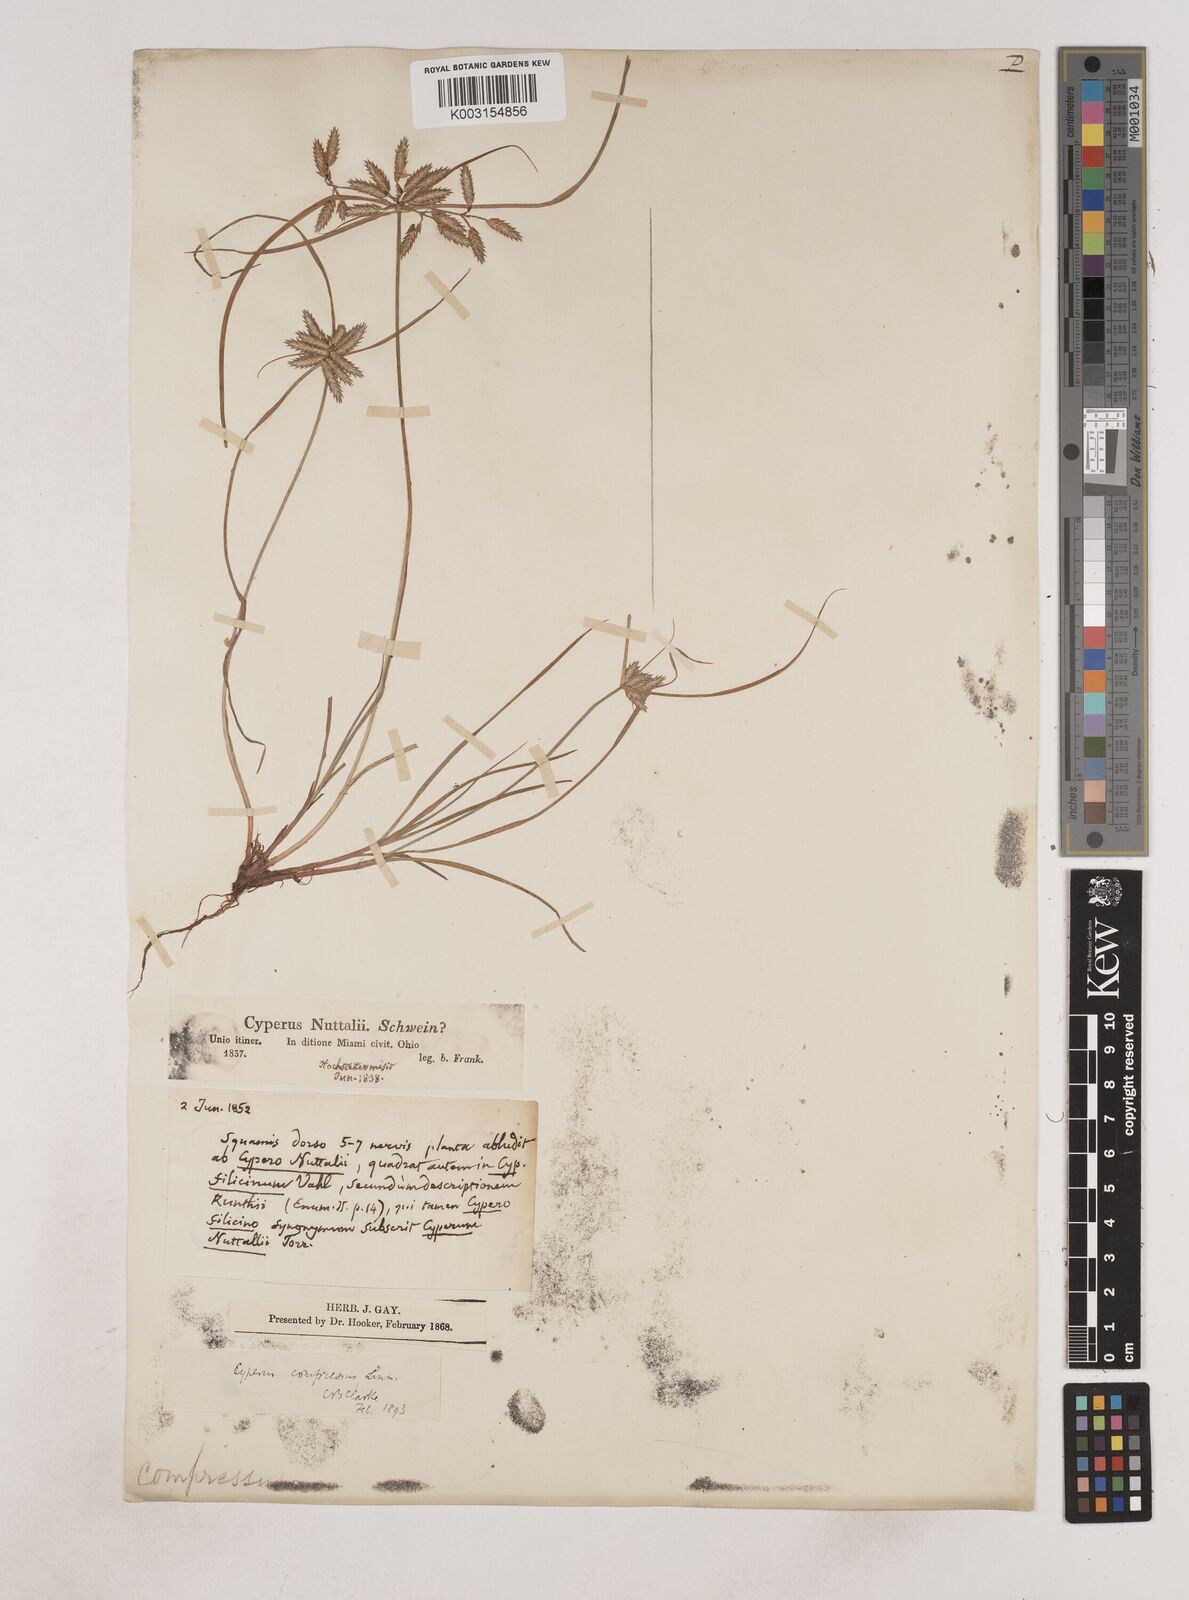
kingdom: Plantae
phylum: Tracheophyta
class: Liliopsida
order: Poales
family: Cyperaceae
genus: Cyperus
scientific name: Cyperus compressus
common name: Poorland flatsedge
